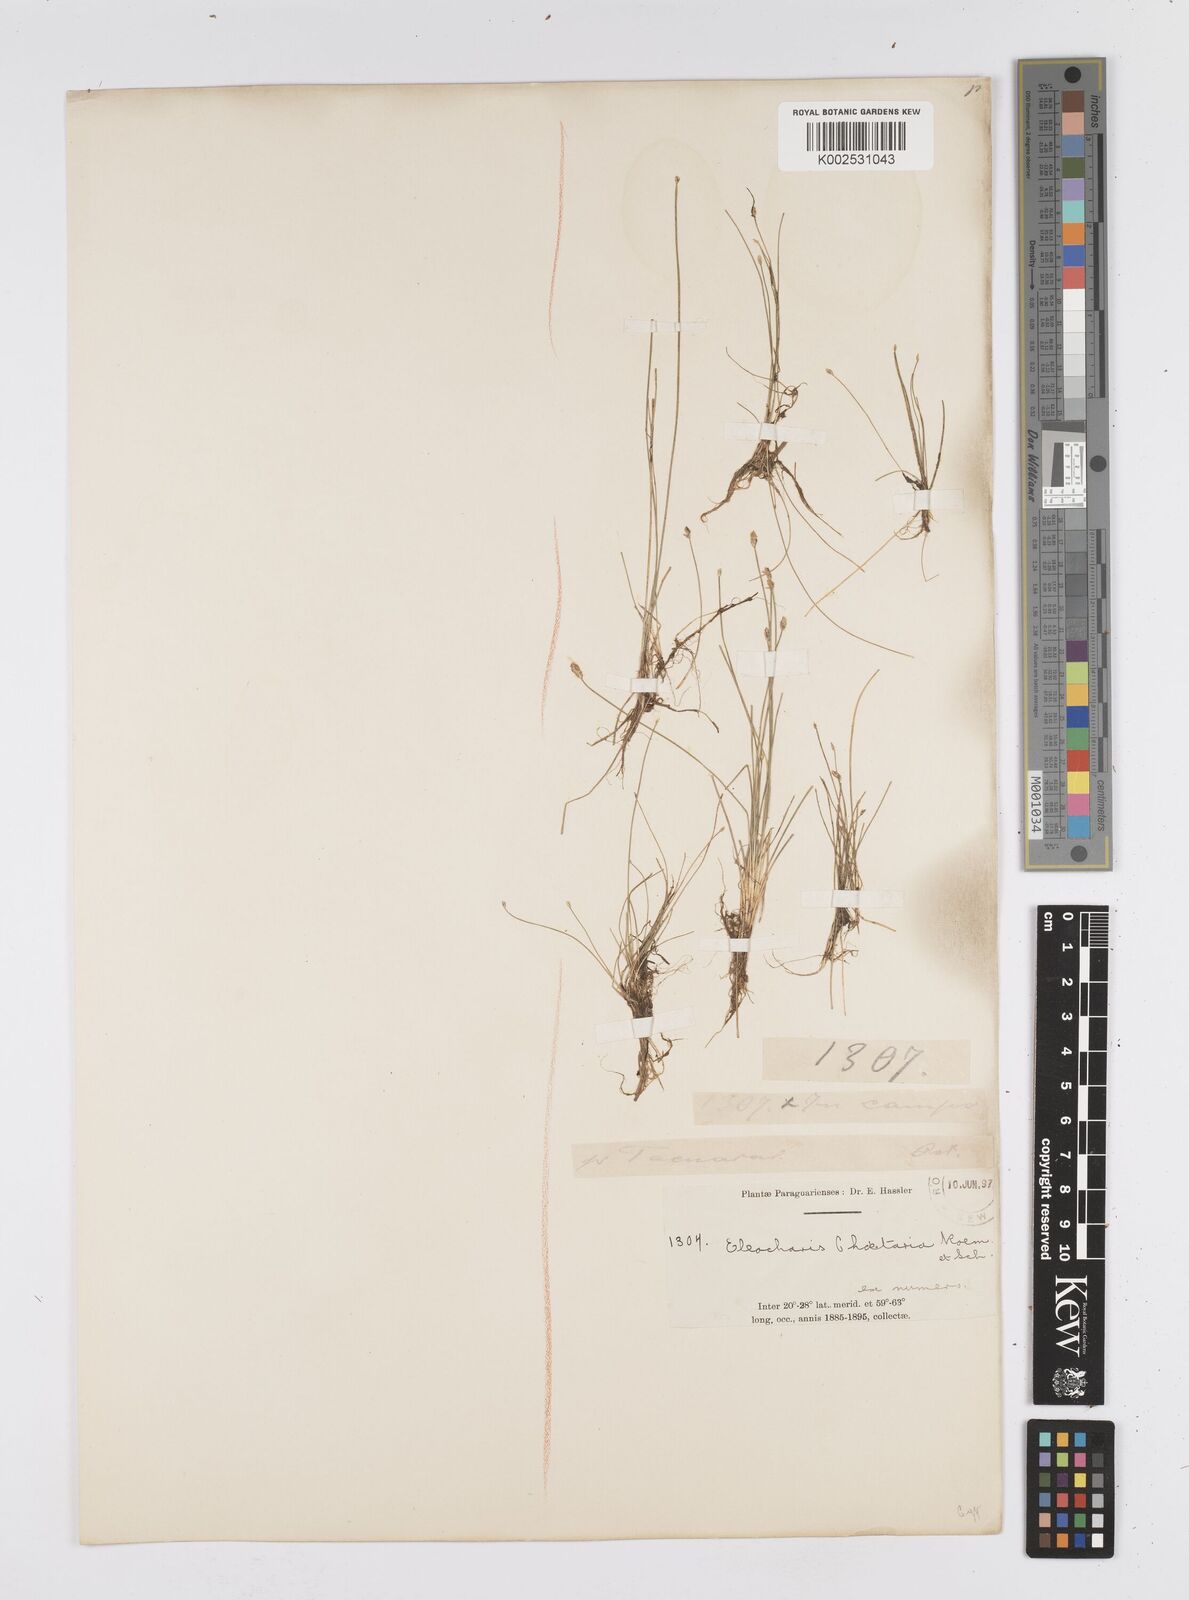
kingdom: Plantae
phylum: Tracheophyta
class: Liliopsida
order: Poales
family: Cyperaceae
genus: Eleocharis
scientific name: Eleocharis retroflexa
